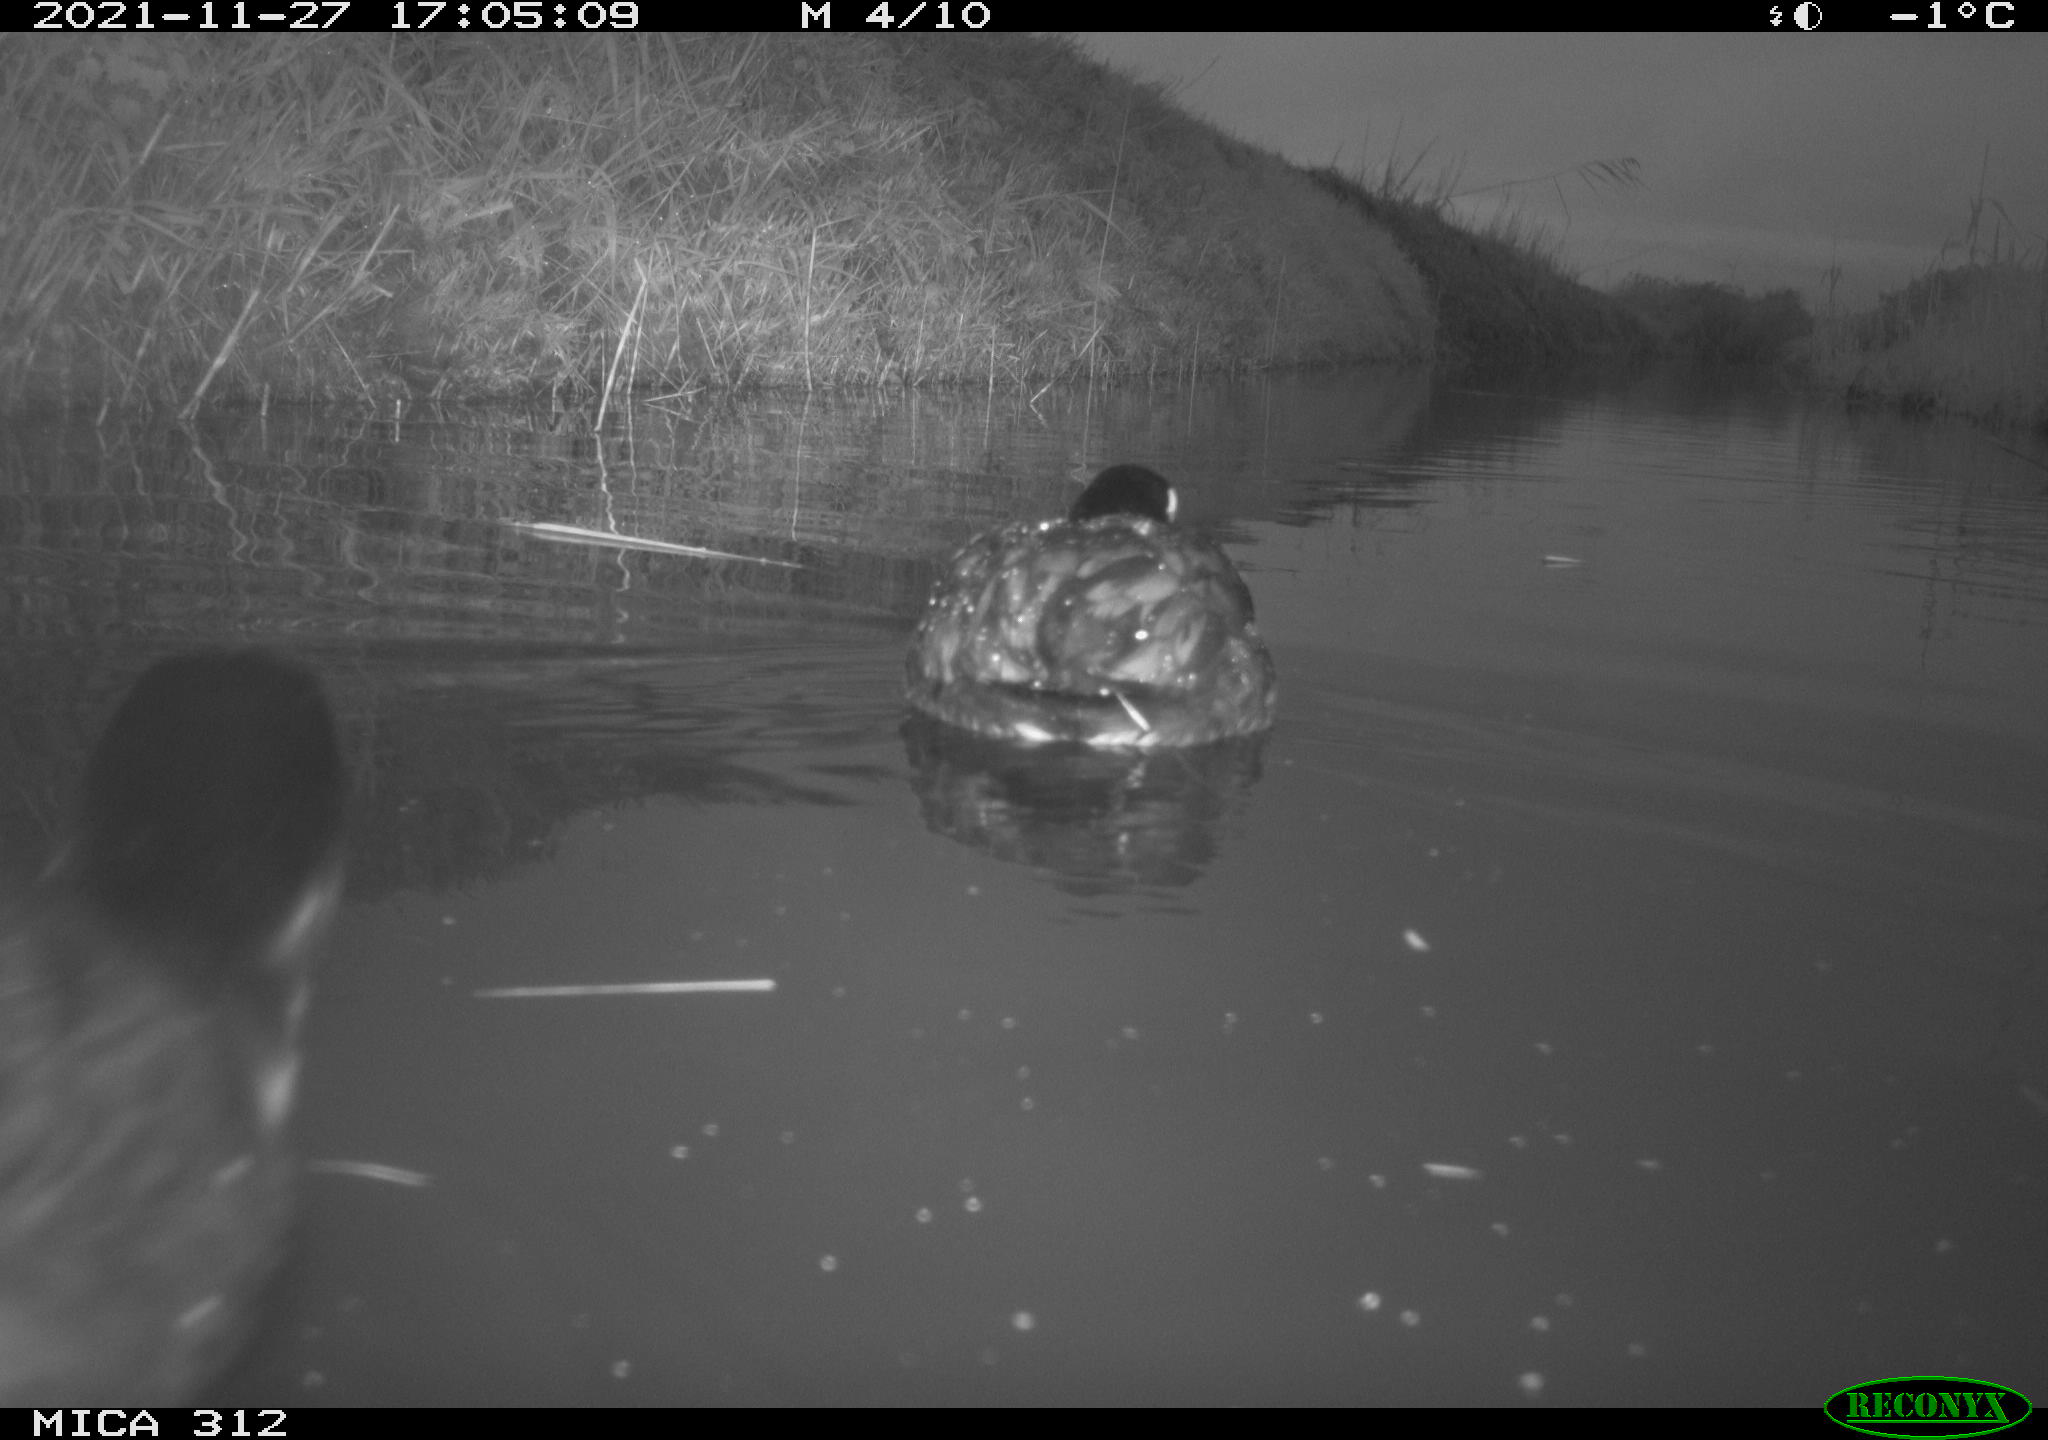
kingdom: Animalia
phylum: Chordata
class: Aves
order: Gruiformes
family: Rallidae
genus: Gallinula
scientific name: Gallinula chloropus
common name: Common moorhen
